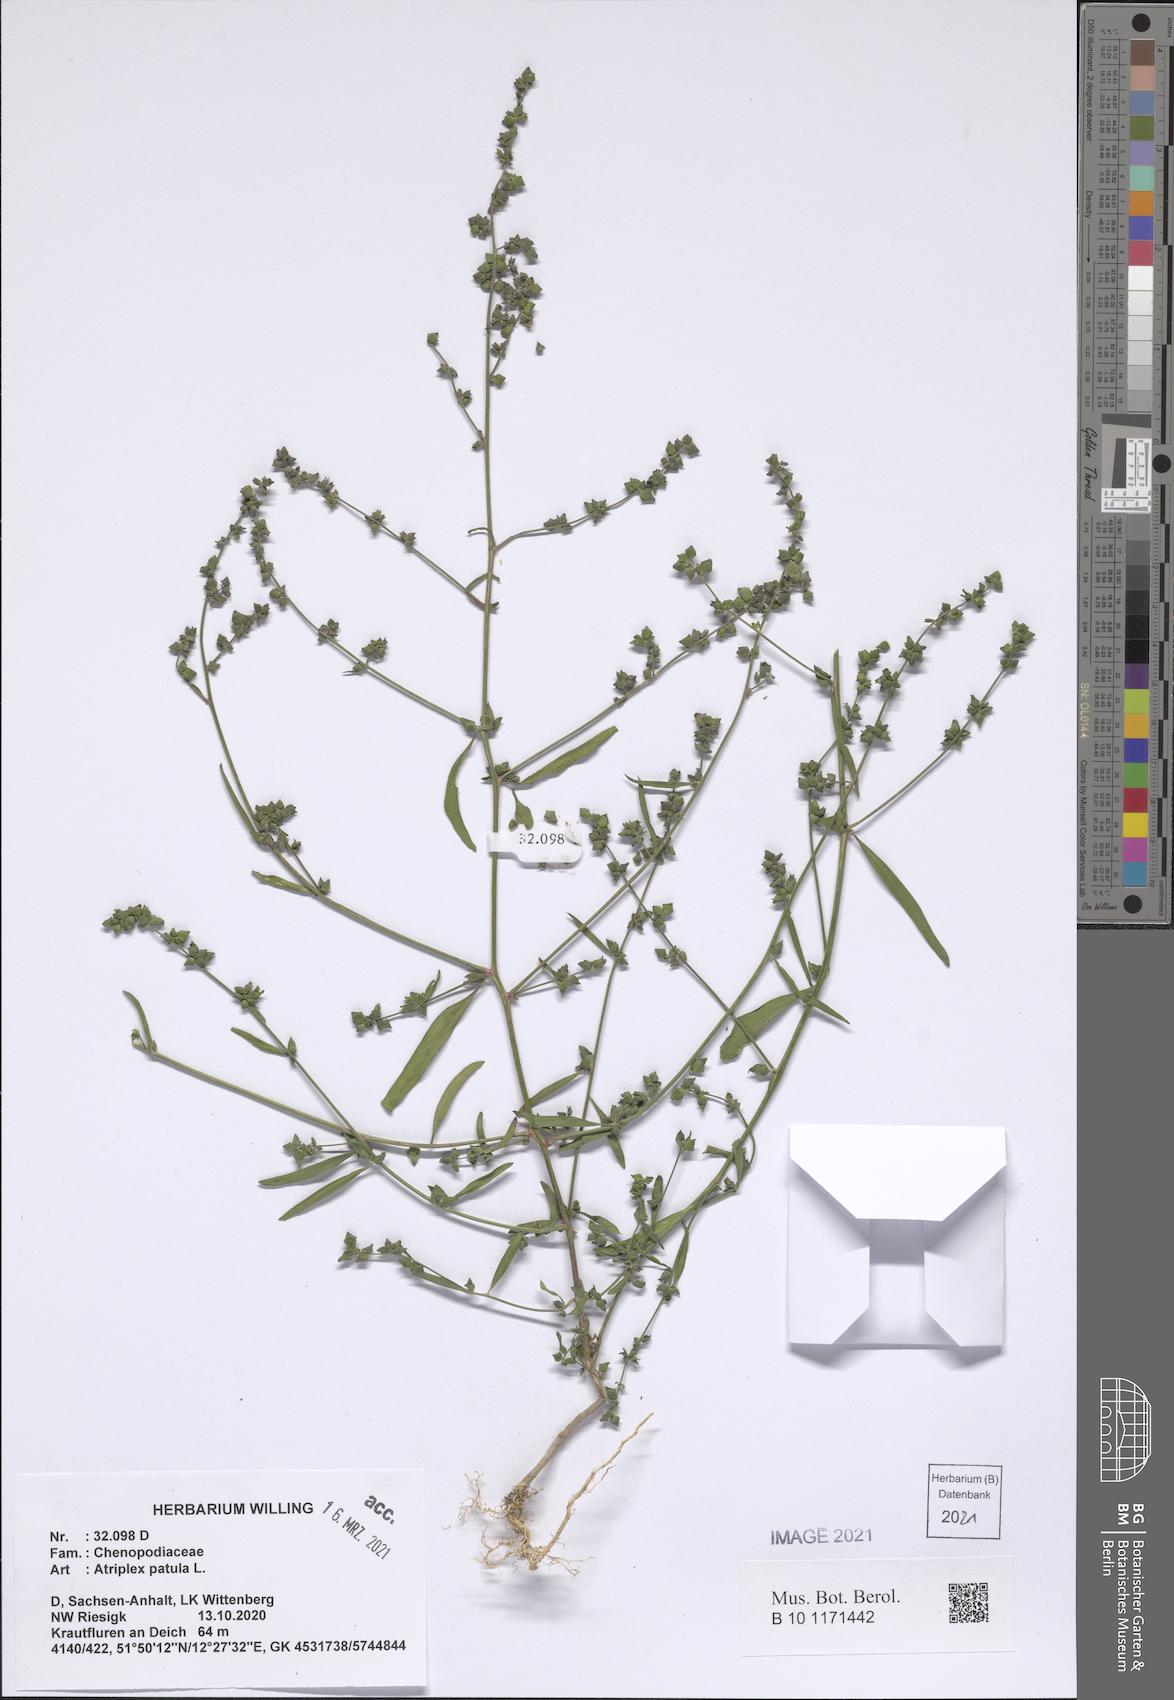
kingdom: Plantae
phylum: Tracheophyta
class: Magnoliopsida
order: Caryophyllales
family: Amaranthaceae
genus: Atriplex
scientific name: Atriplex patula
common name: Common orache
